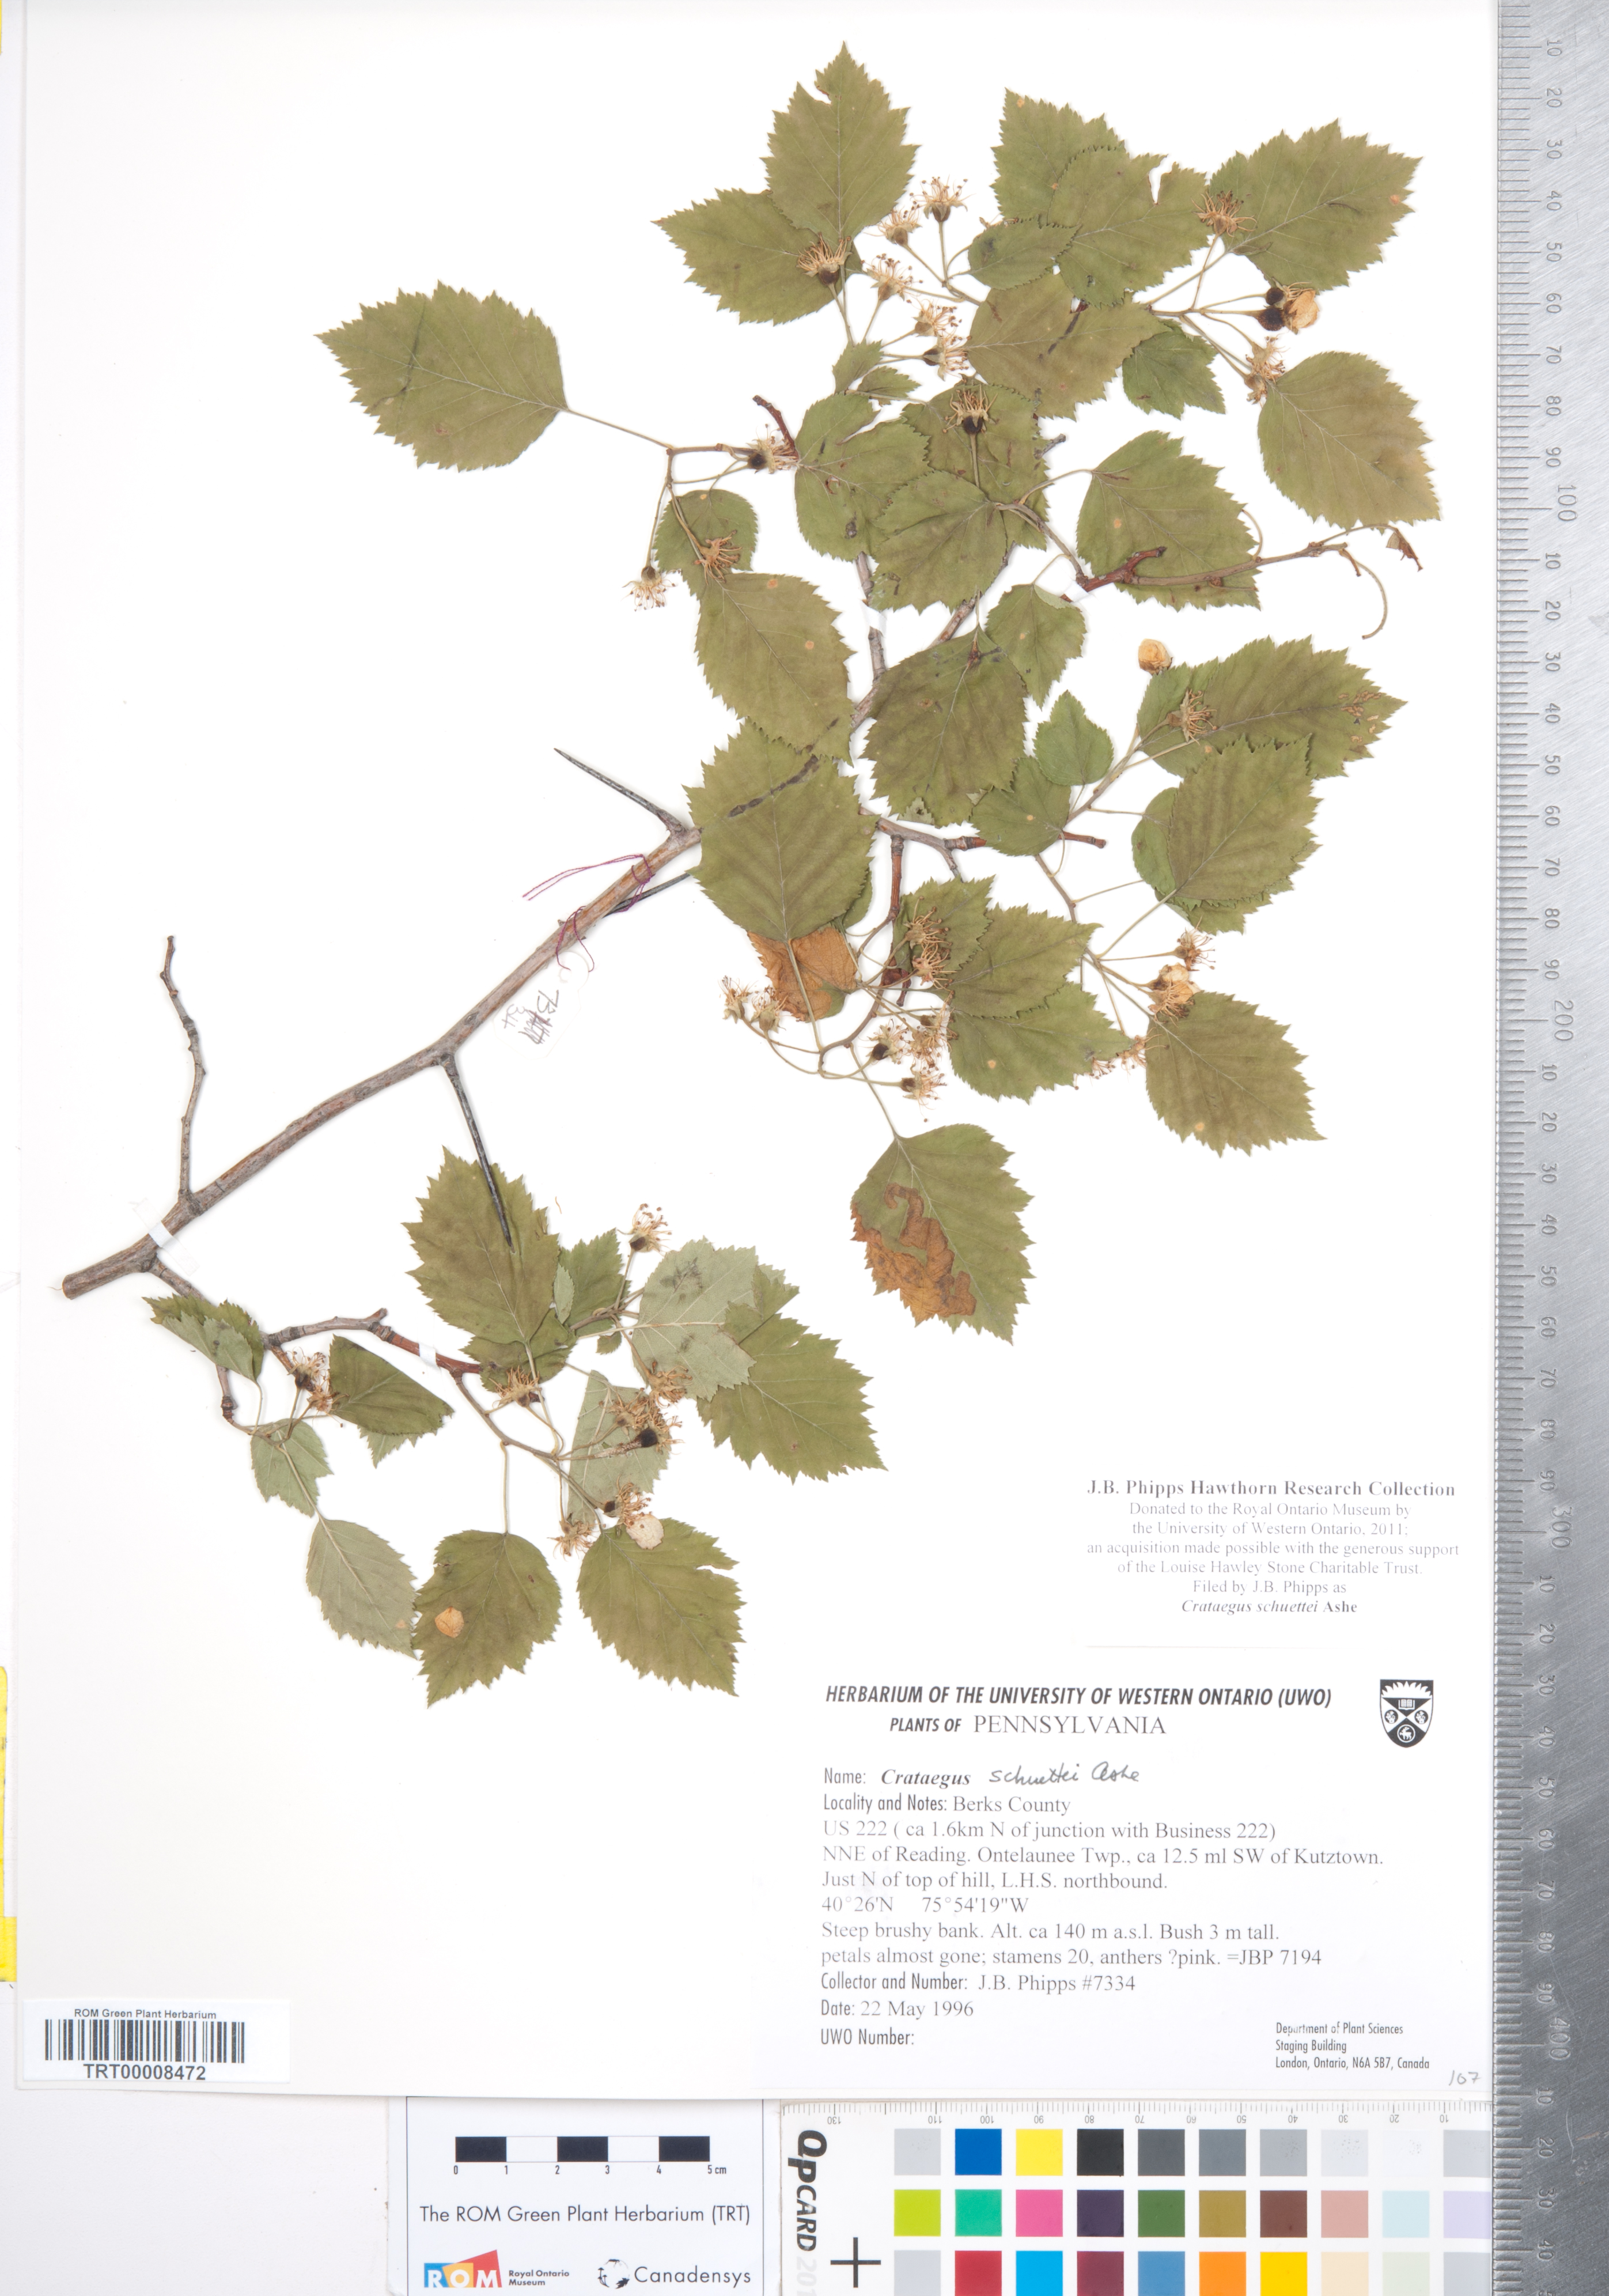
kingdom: Plantae
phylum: Tracheophyta
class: Magnoliopsida
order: Rosales
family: Rosaceae
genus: Crataegus
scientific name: Crataegus schuettei
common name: Schuette's hawthorn
